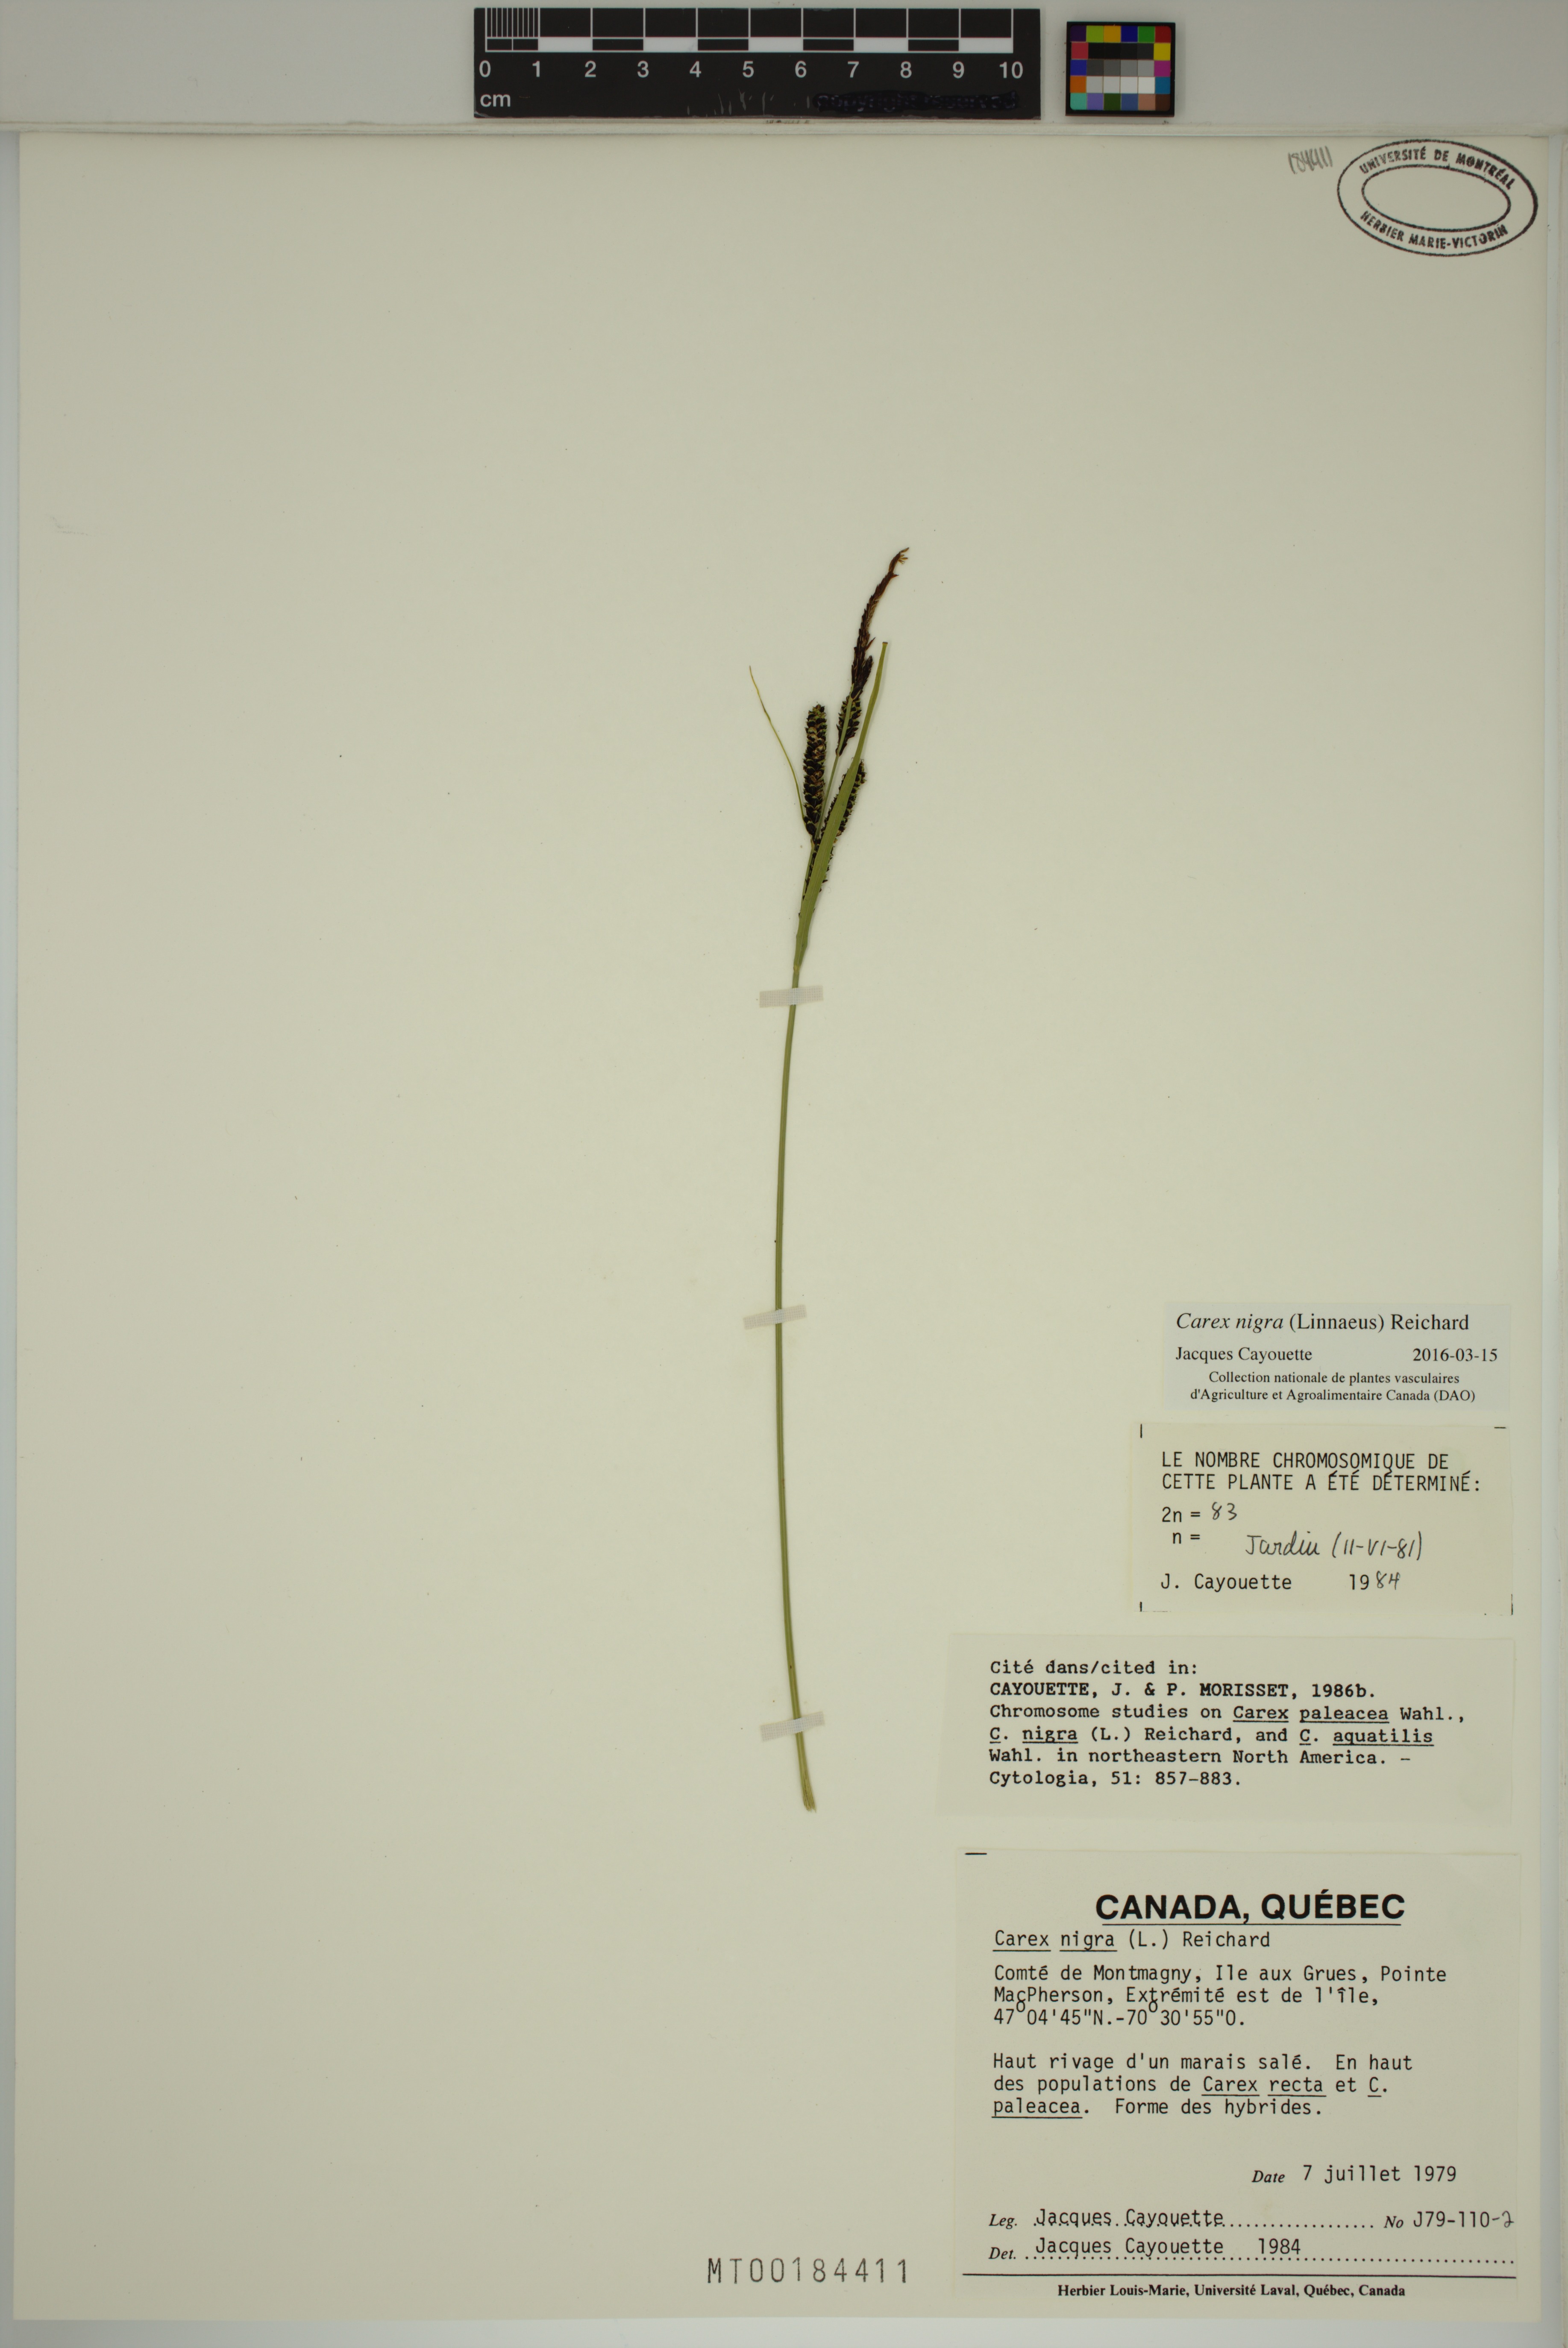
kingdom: Plantae
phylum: Tracheophyta
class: Liliopsida
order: Poales
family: Cyperaceae
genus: Carex
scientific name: Carex nigra
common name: Common sedge
